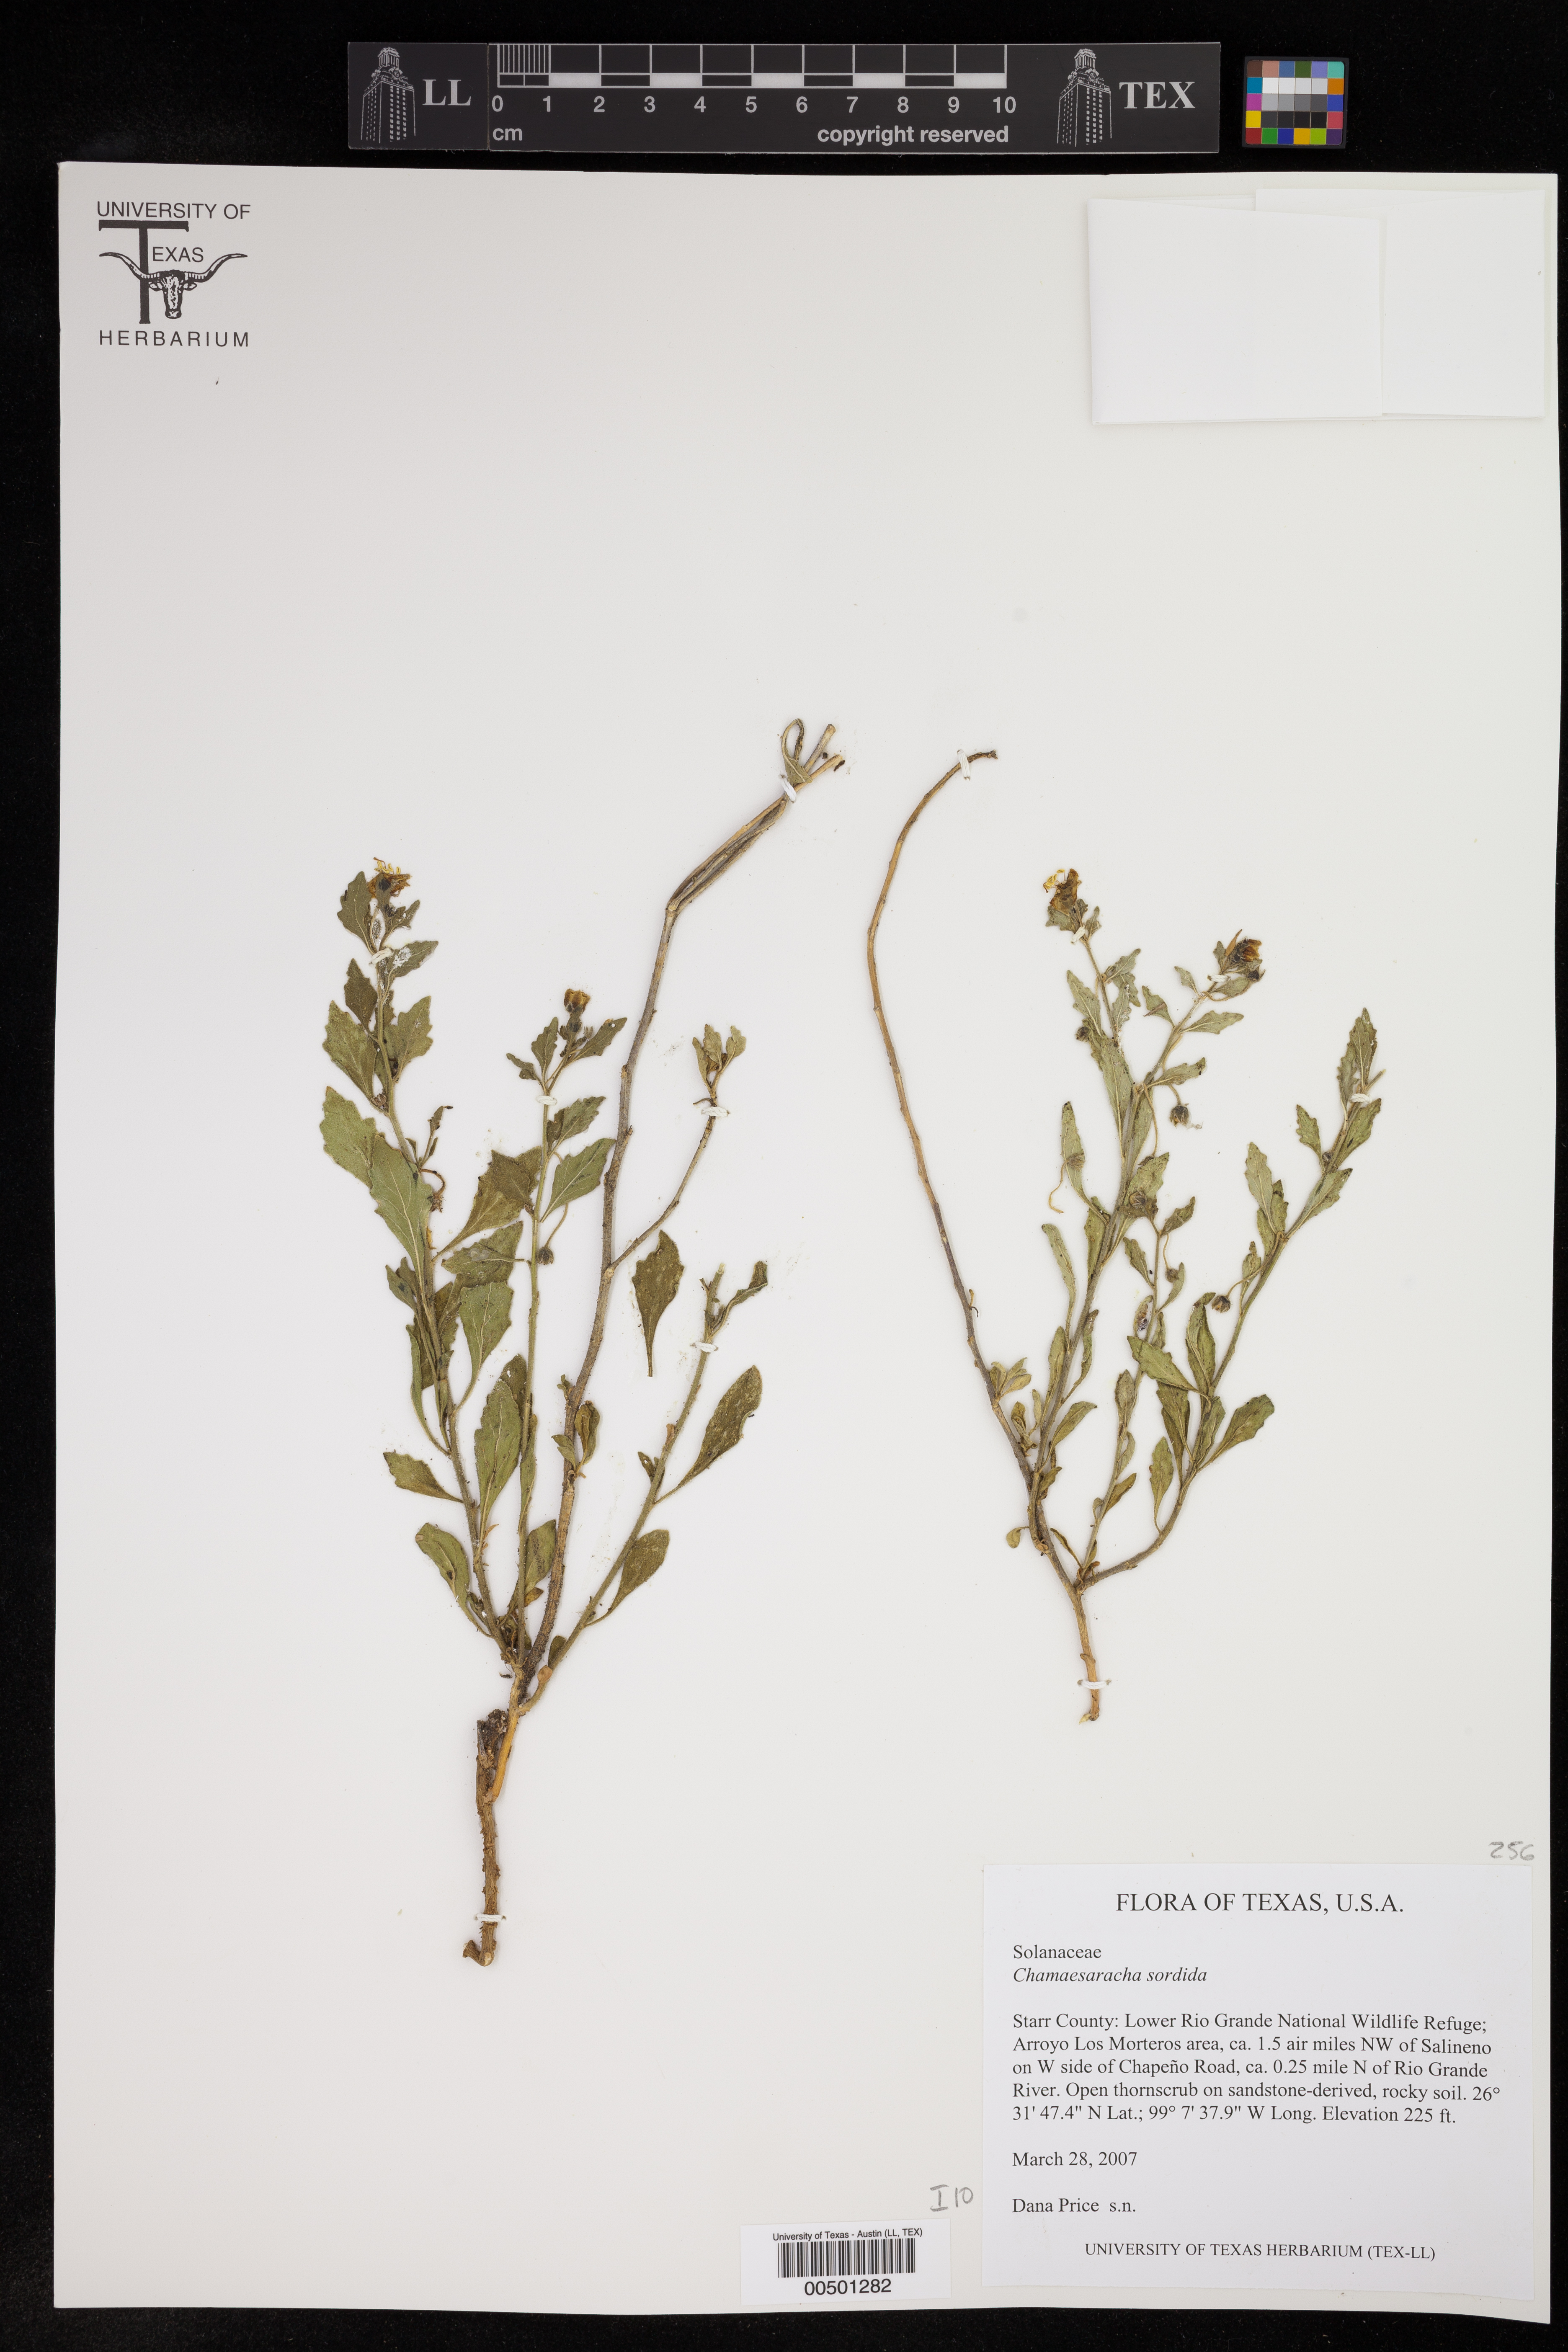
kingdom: Plantae
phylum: Tracheophyta
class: Magnoliopsida
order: Solanales
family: Solanaceae
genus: Chamaesaracha
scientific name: Chamaesaracha texensis
